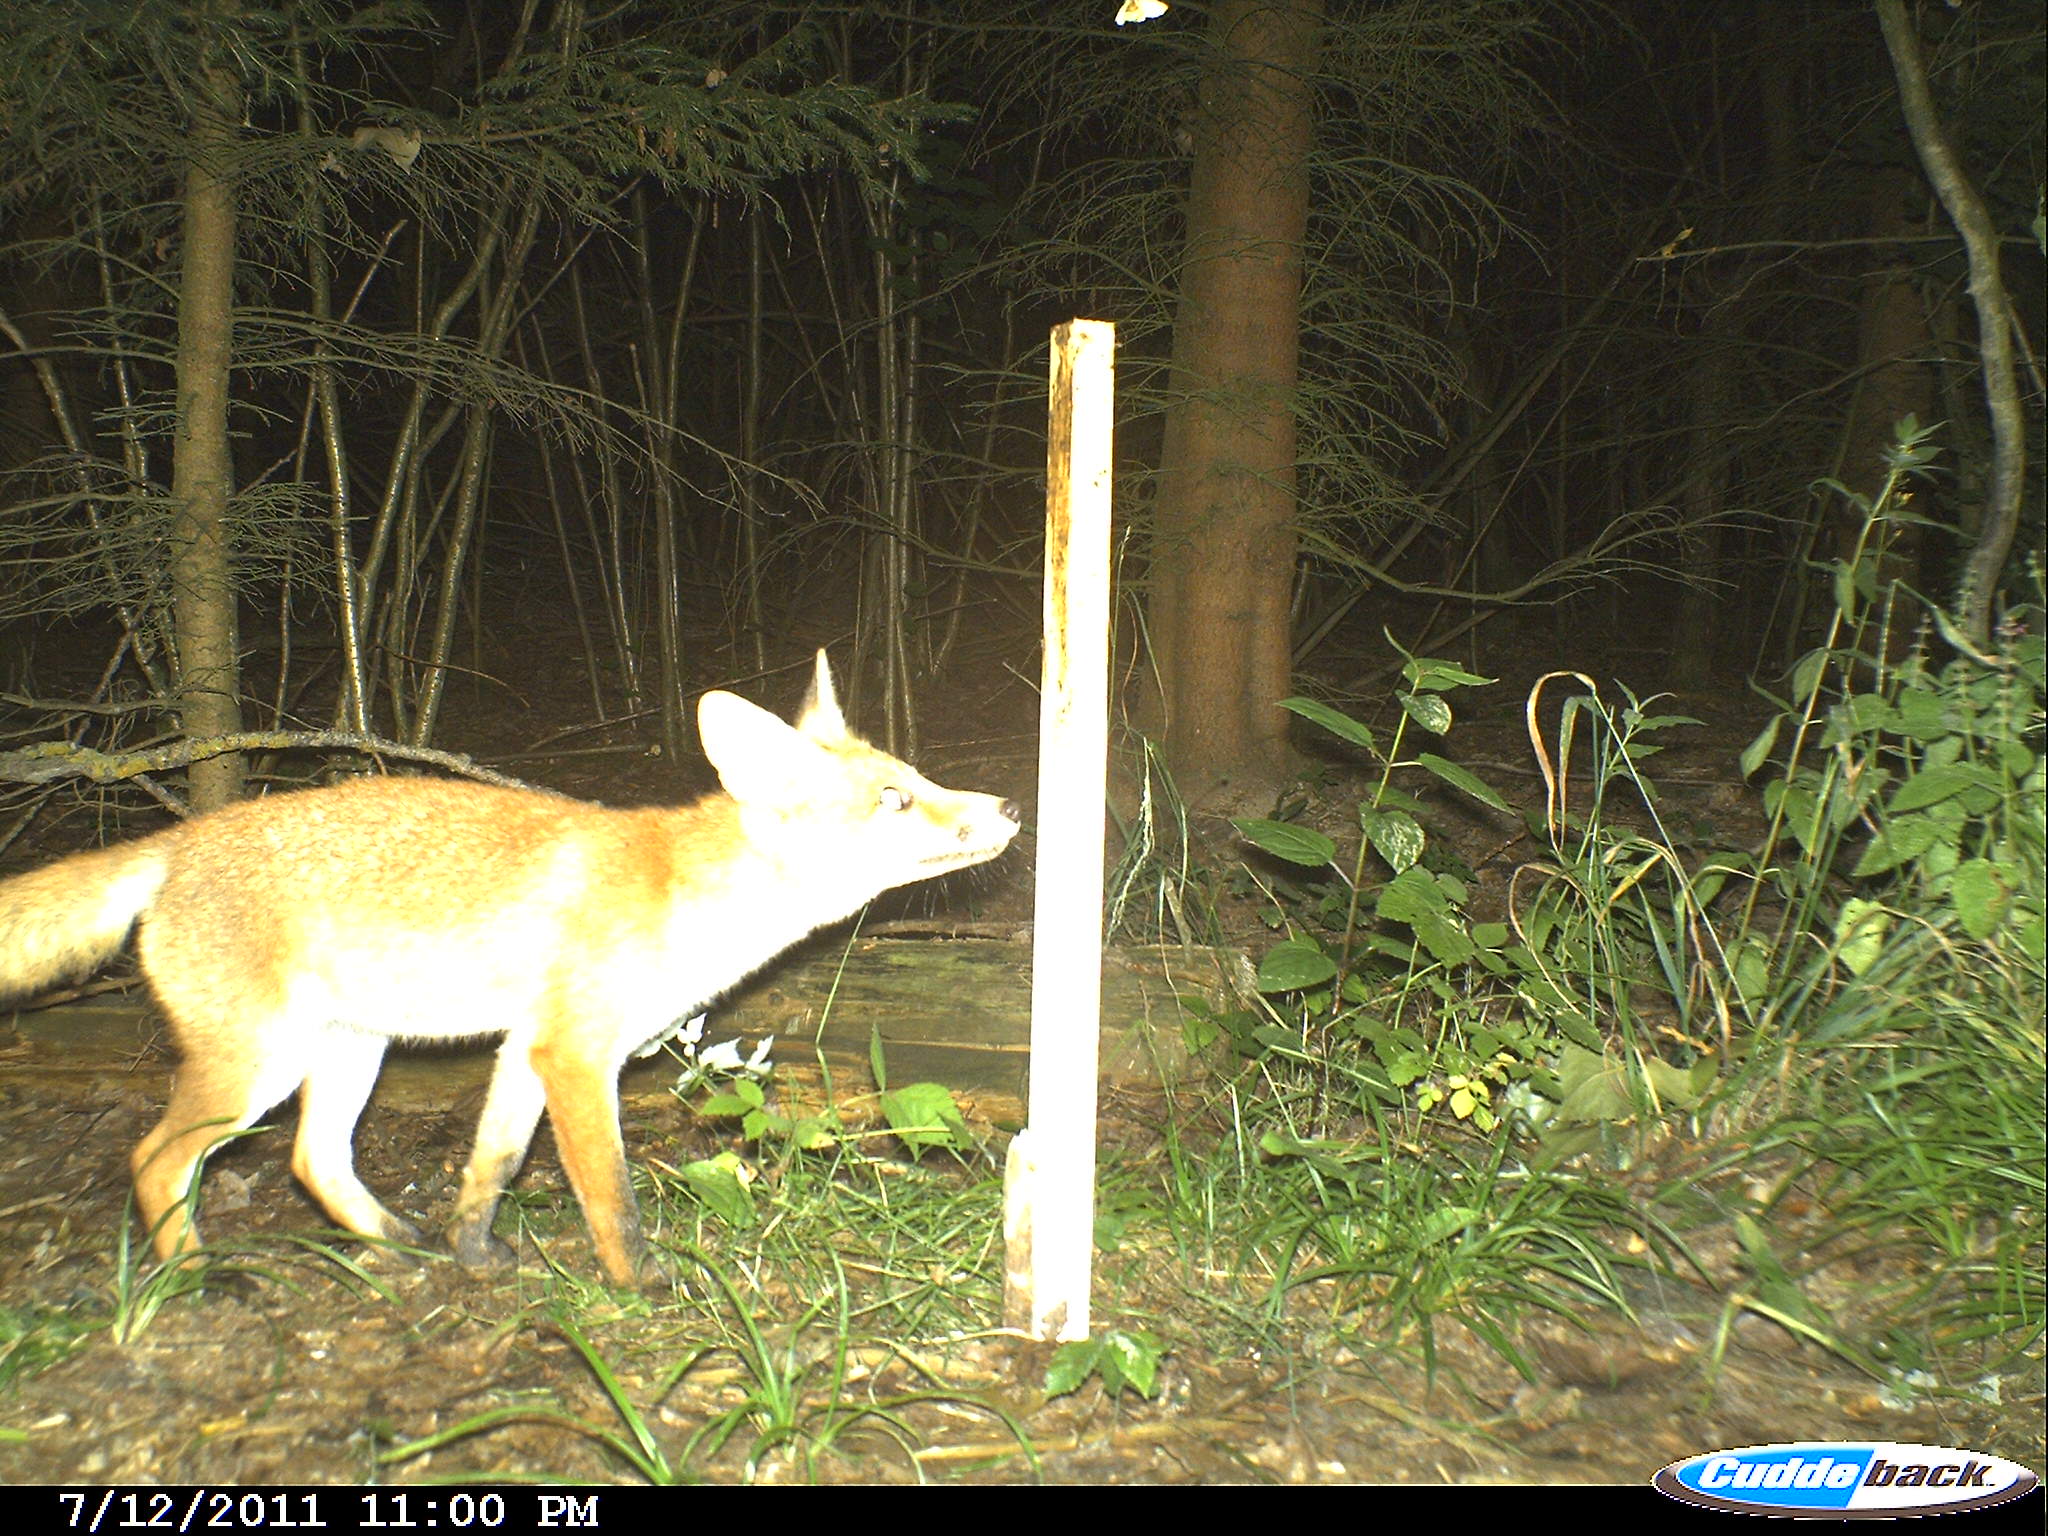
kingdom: Animalia
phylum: Chordata
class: Mammalia
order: Carnivora
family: Canidae
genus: Vulpes
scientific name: Vulpes vulpes
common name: Red fox
